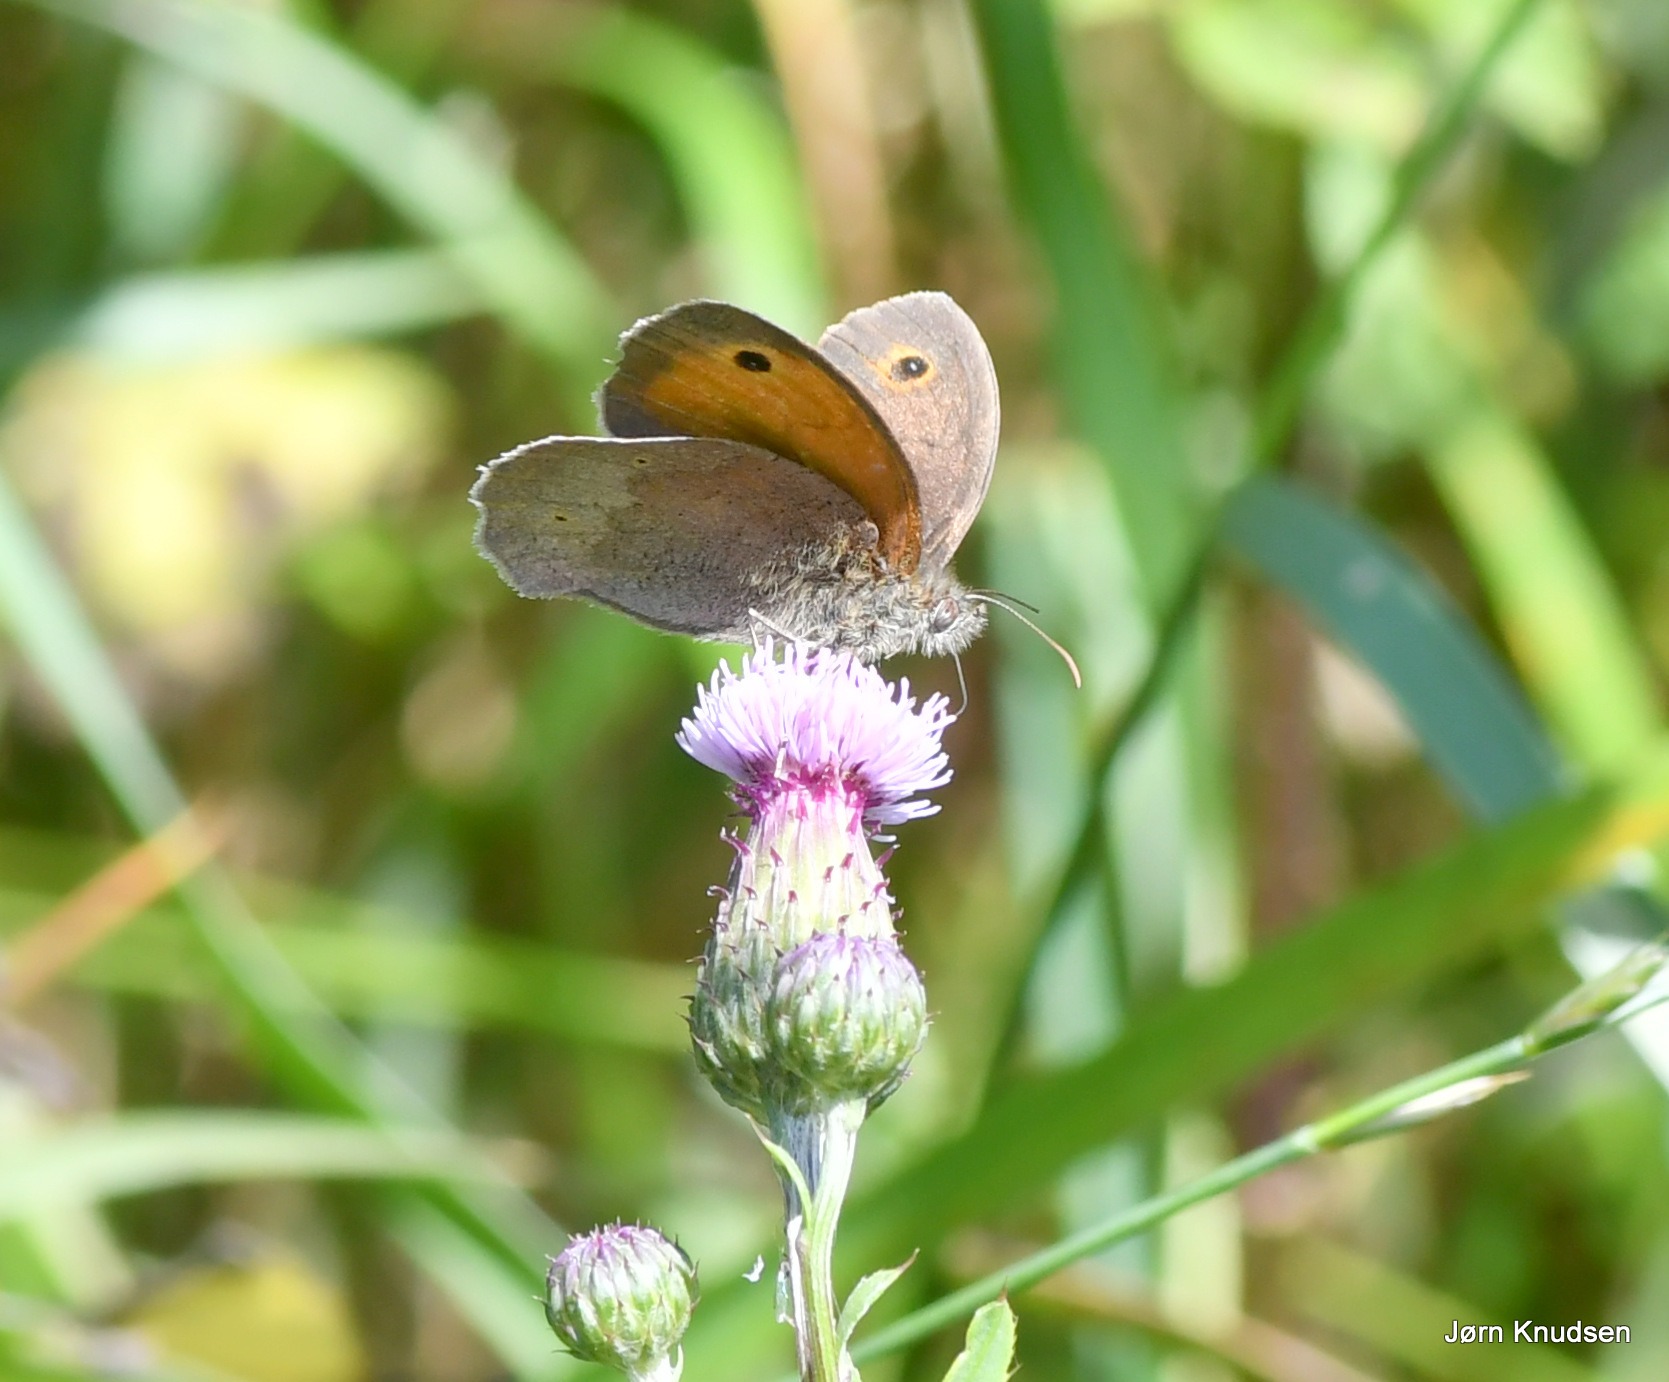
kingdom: Animalia
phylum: Arthropoda
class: Insecta
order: Lepidoptera
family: Nymphalidae
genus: Maniola
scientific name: Maniola jurtina
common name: Græsrandøje
